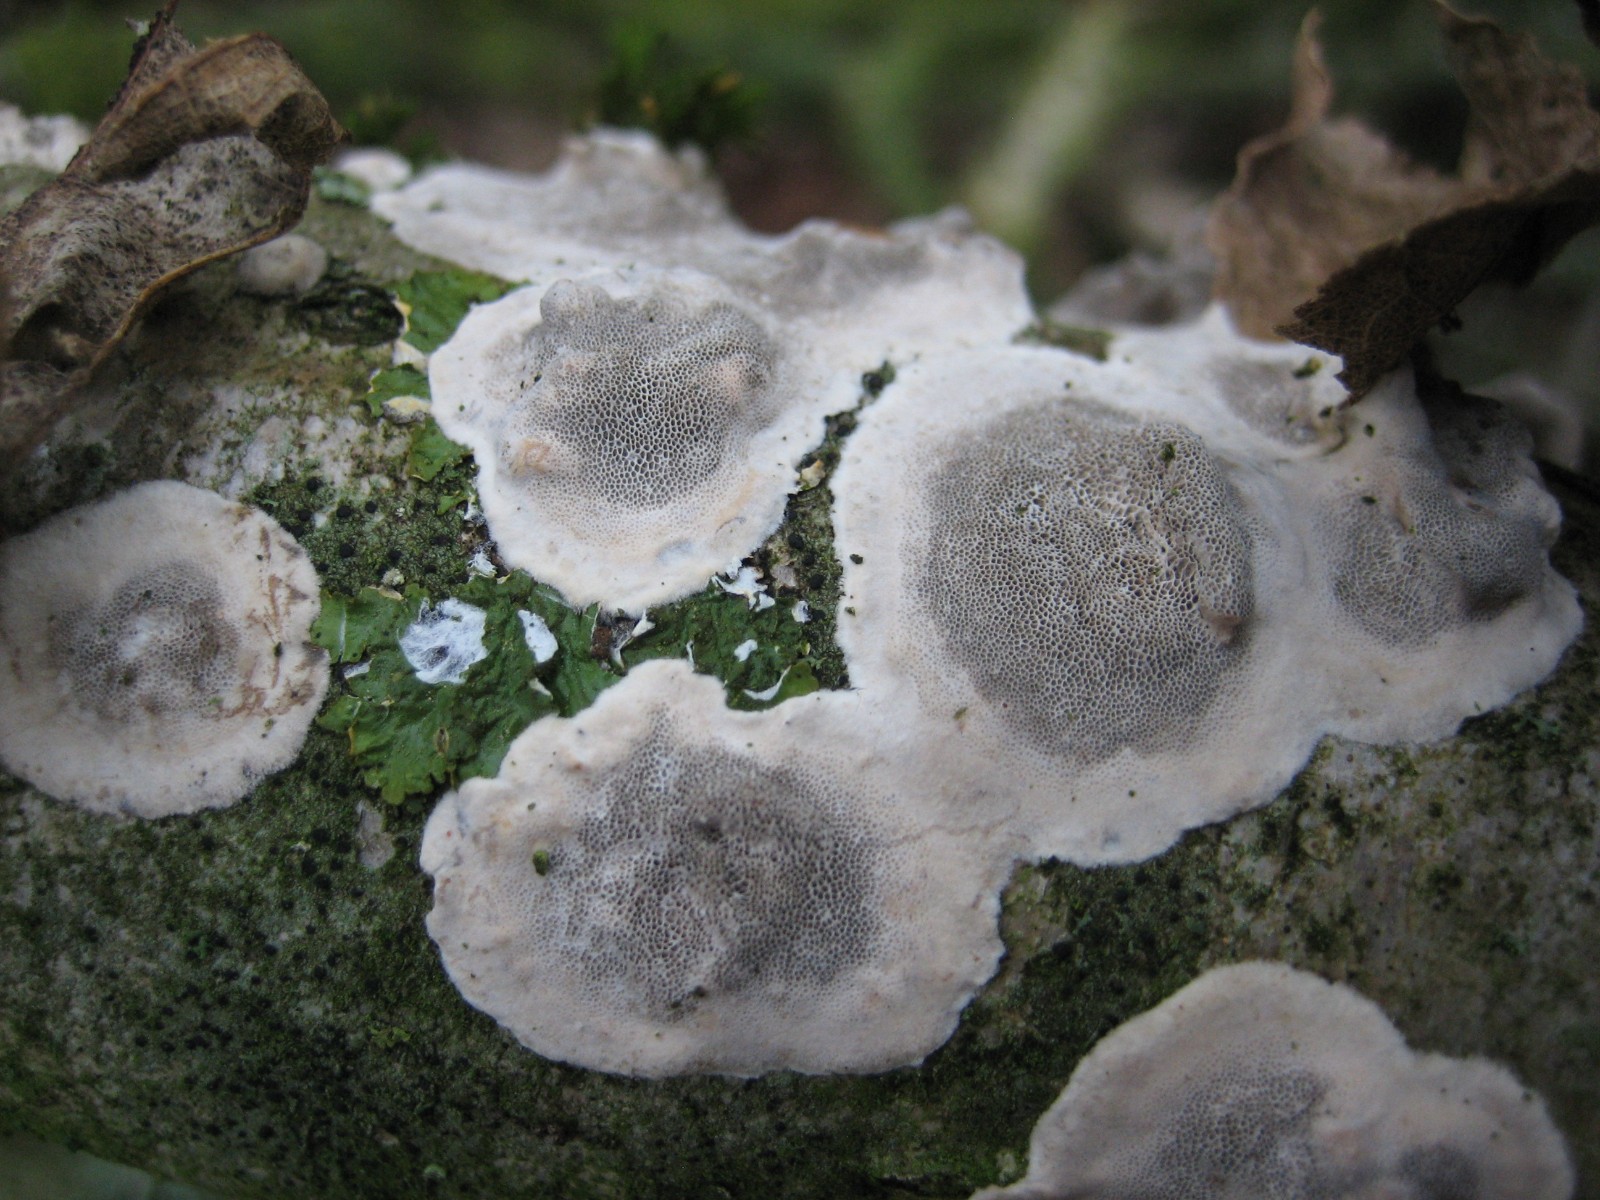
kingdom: Fungi
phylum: Basidiomycota
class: Agaricomycetes
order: Polyporales
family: Phanerochaetaceae
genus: Bjerkandera
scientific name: Bjerkandera adusta
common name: sveden sodporesvamp
